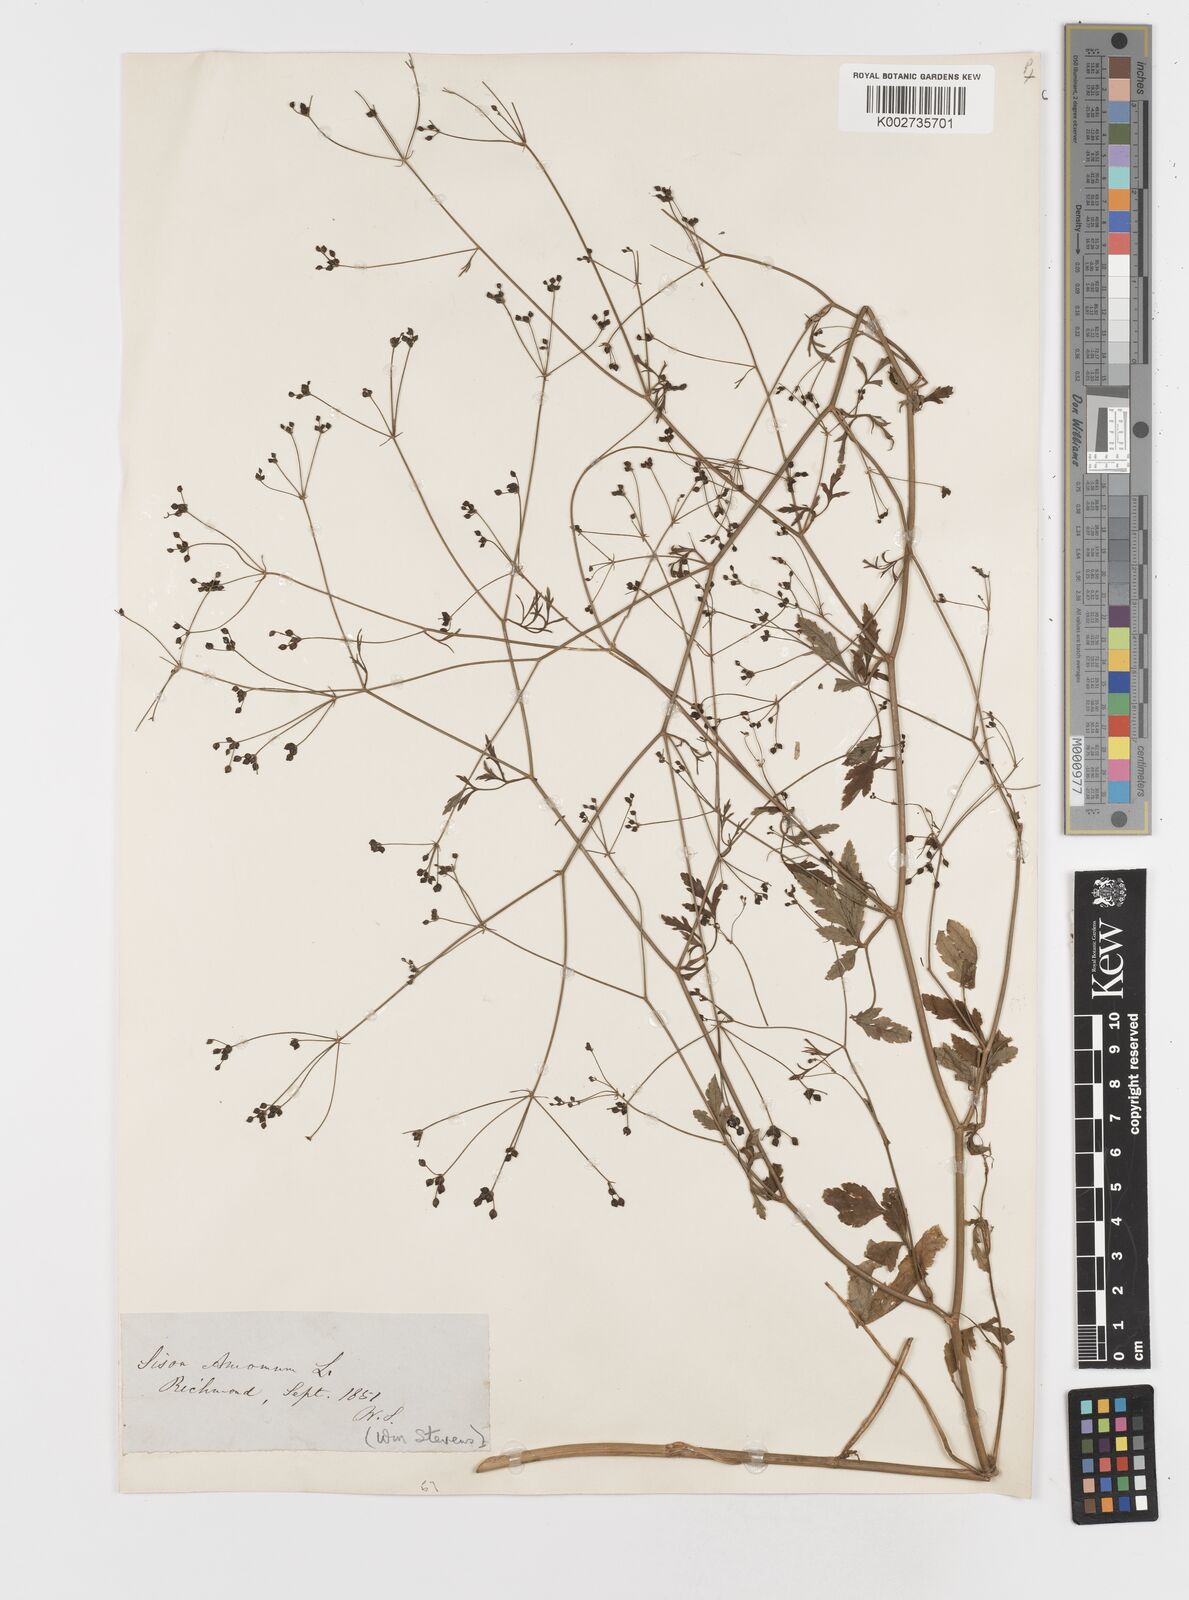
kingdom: Plantae
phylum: Tracheophyta
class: Magnoliopsida
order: Apiales
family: Apiaceae
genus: Sison
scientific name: Sison amomum
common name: Stone-parsley
